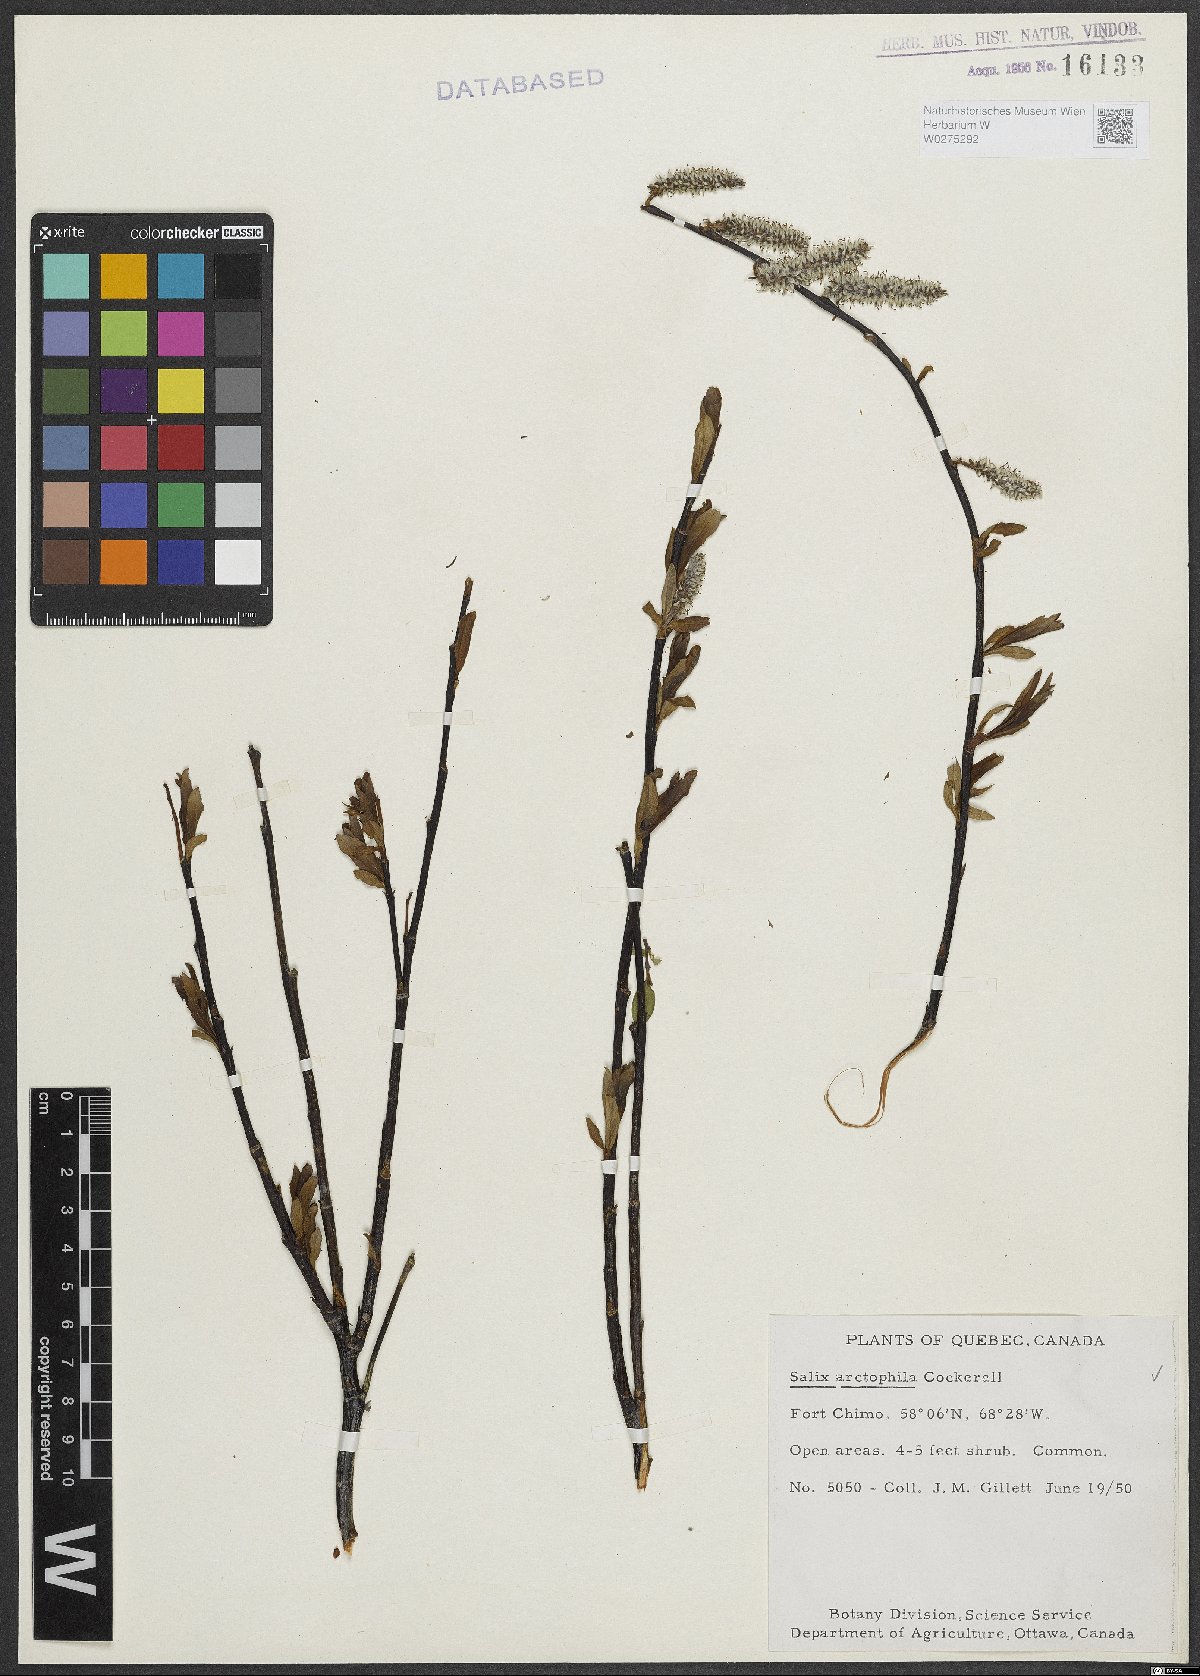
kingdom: Plantae
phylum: Tracheophyta
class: Magnoliopsida
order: Malpighiales
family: Salicaceae
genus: Salix
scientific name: Salix arctophila
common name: Greenland willow
